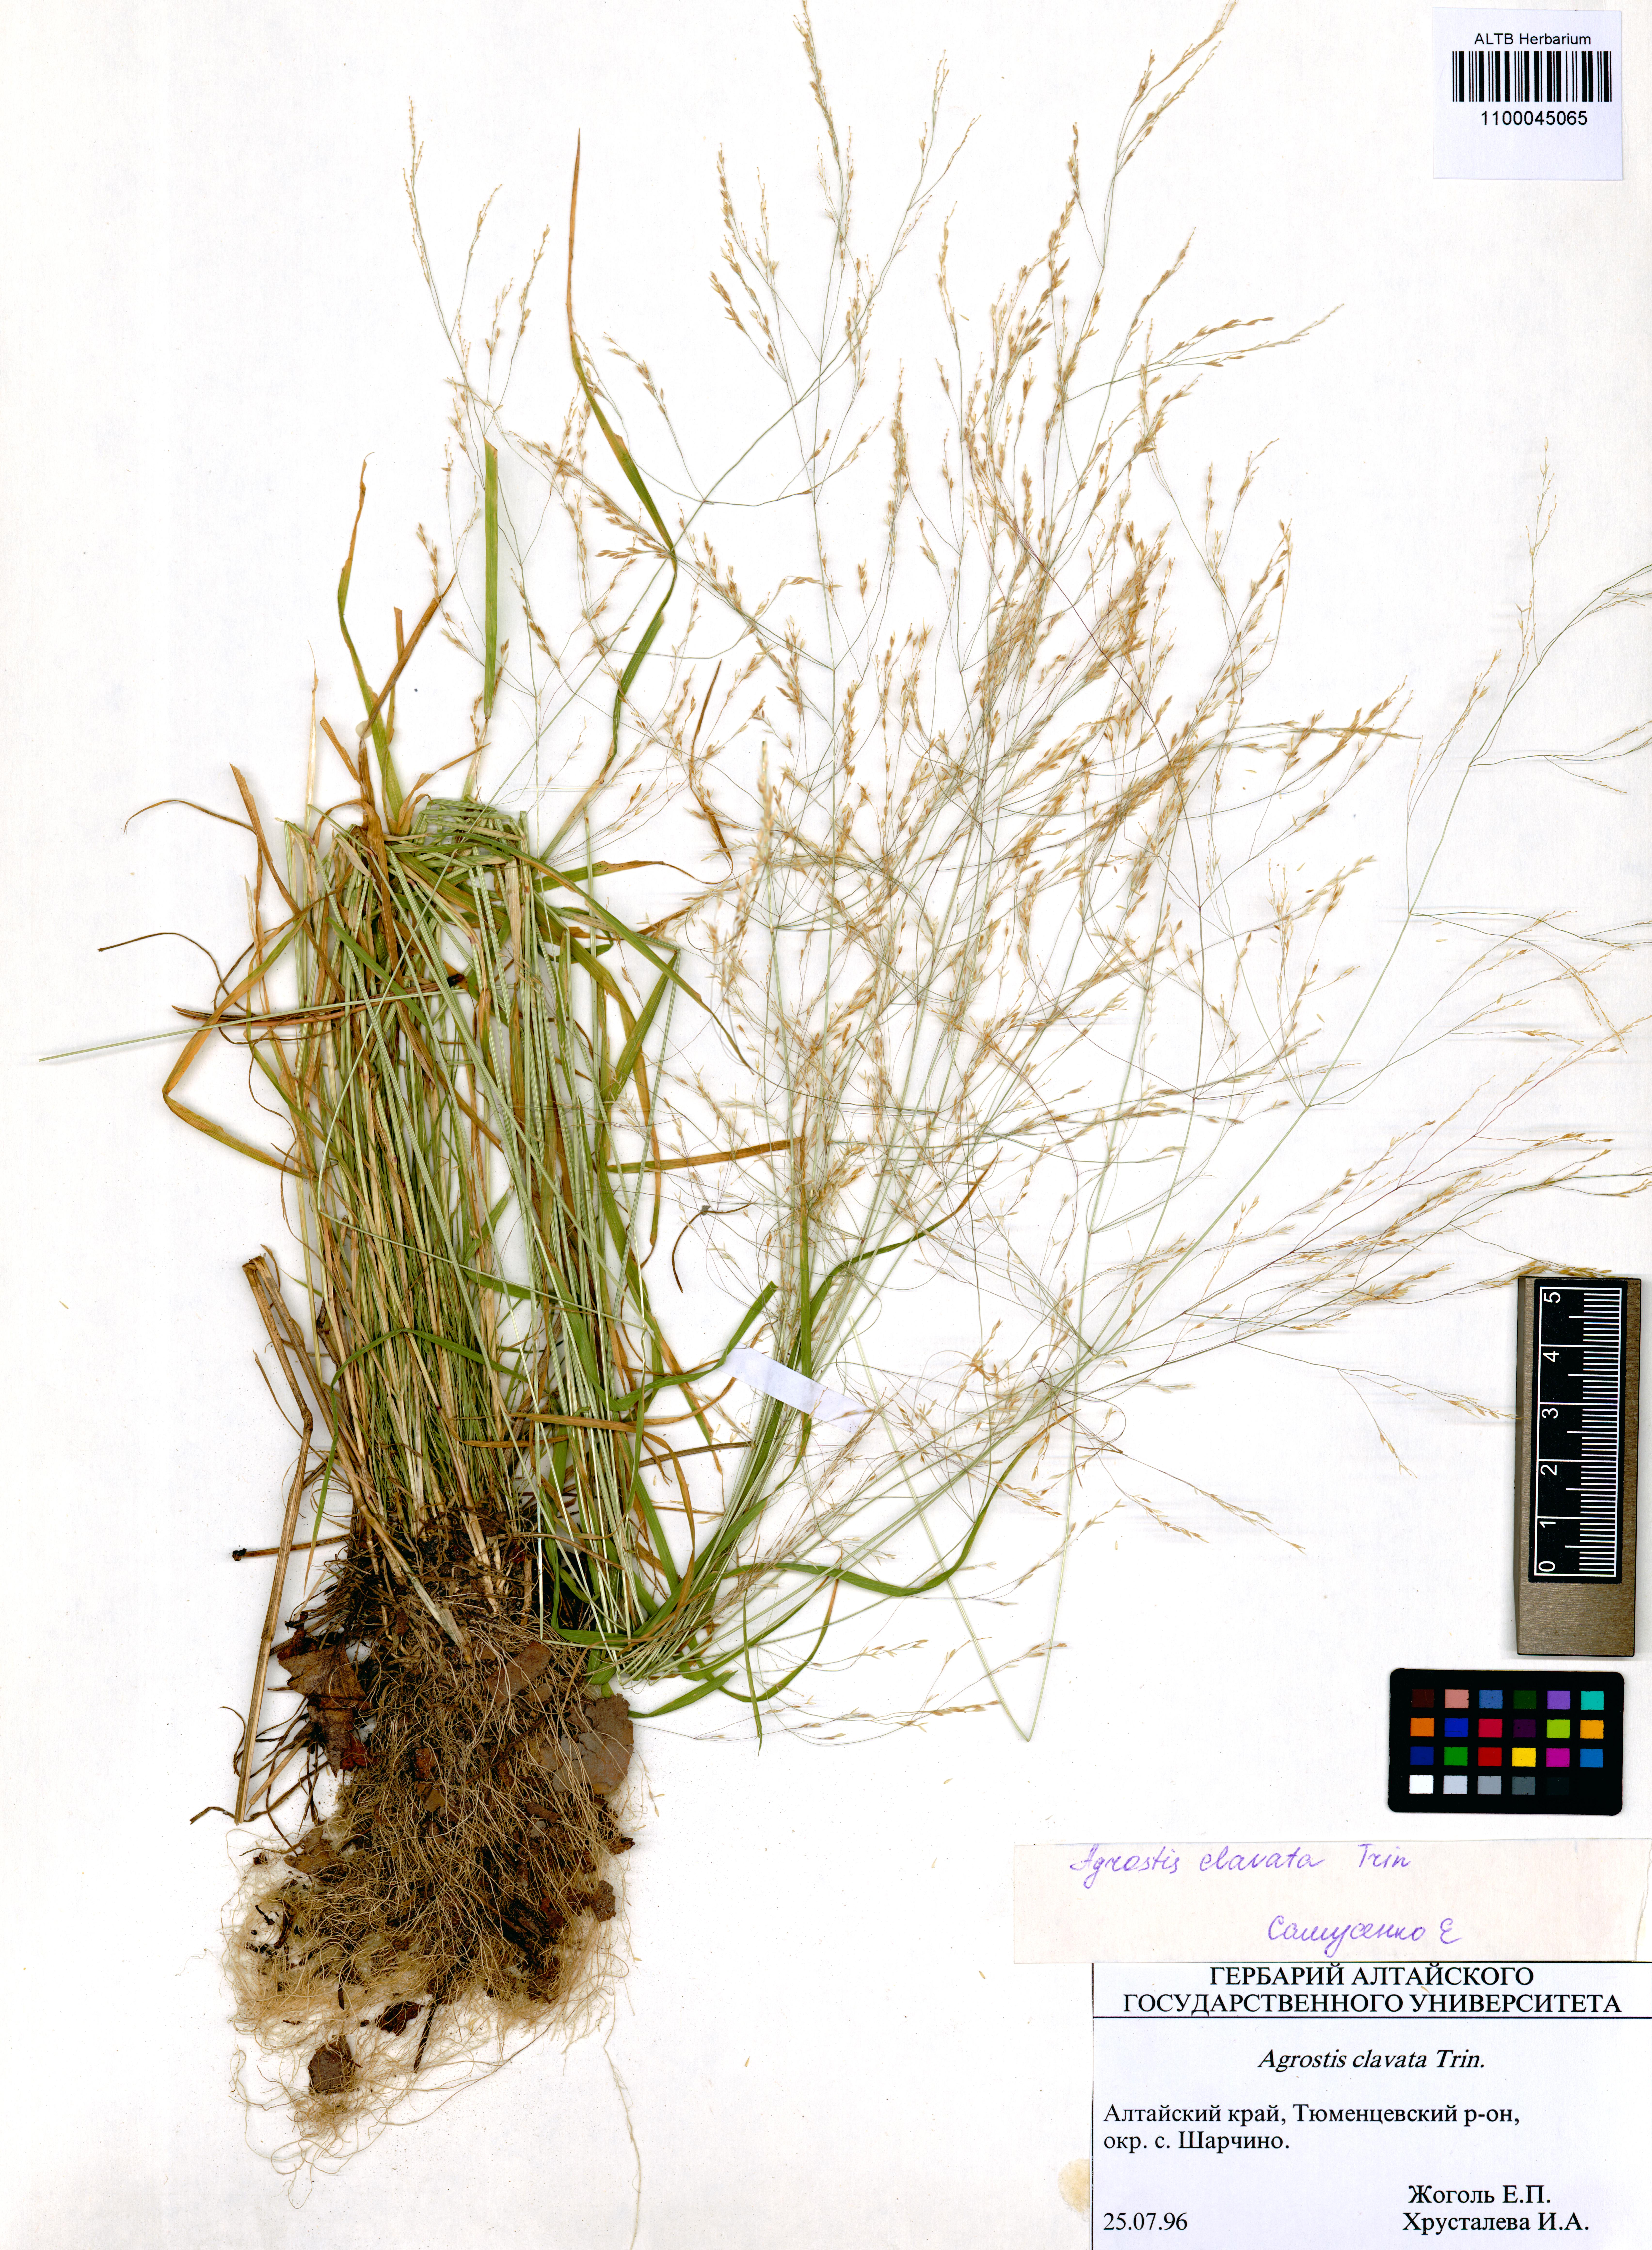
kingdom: Plantae
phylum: Tracheophyta
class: Liliopsida
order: Poales
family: Poaceae
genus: Agrostis
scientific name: Agrostis clavata
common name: Clavate bent
